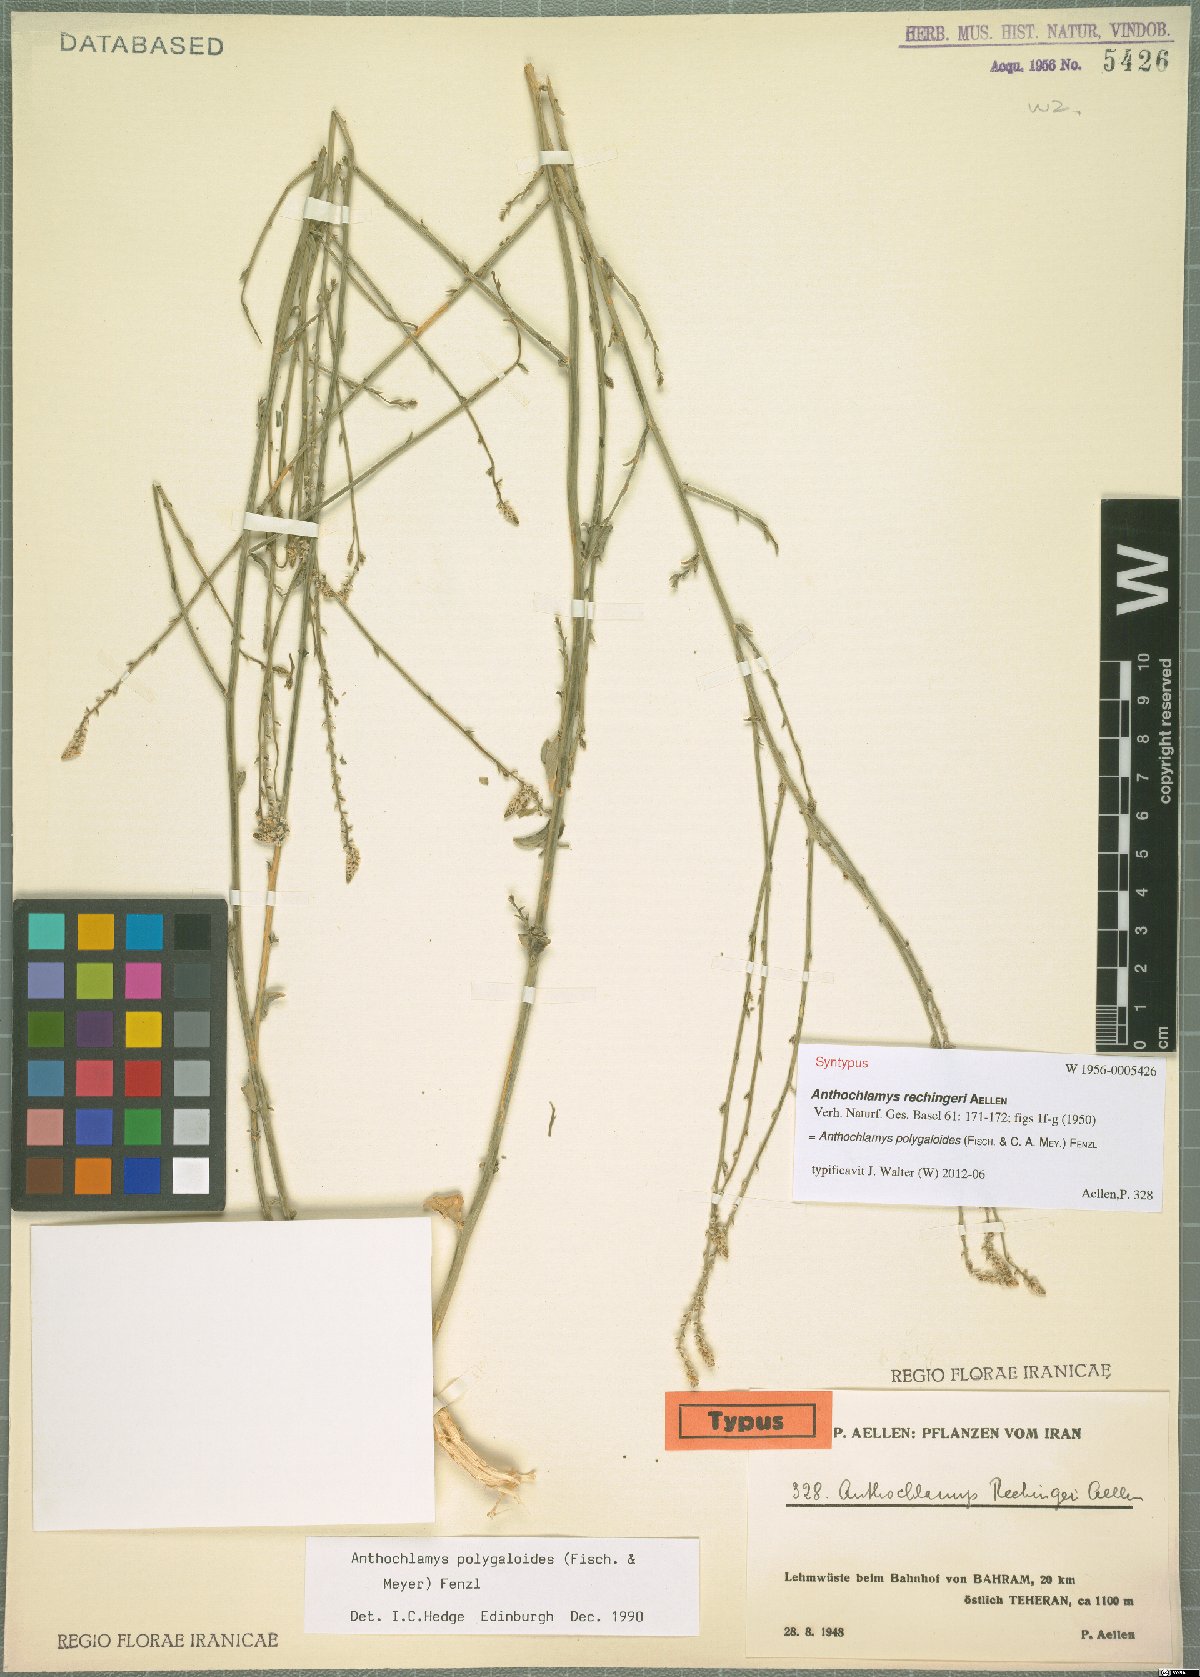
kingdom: Plantae
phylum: Tracheophyta
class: Magnoliopsida
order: Caryophyllales
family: Amaranthaceae
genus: Anthochlamys
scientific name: Anthochlamys polygaloides
